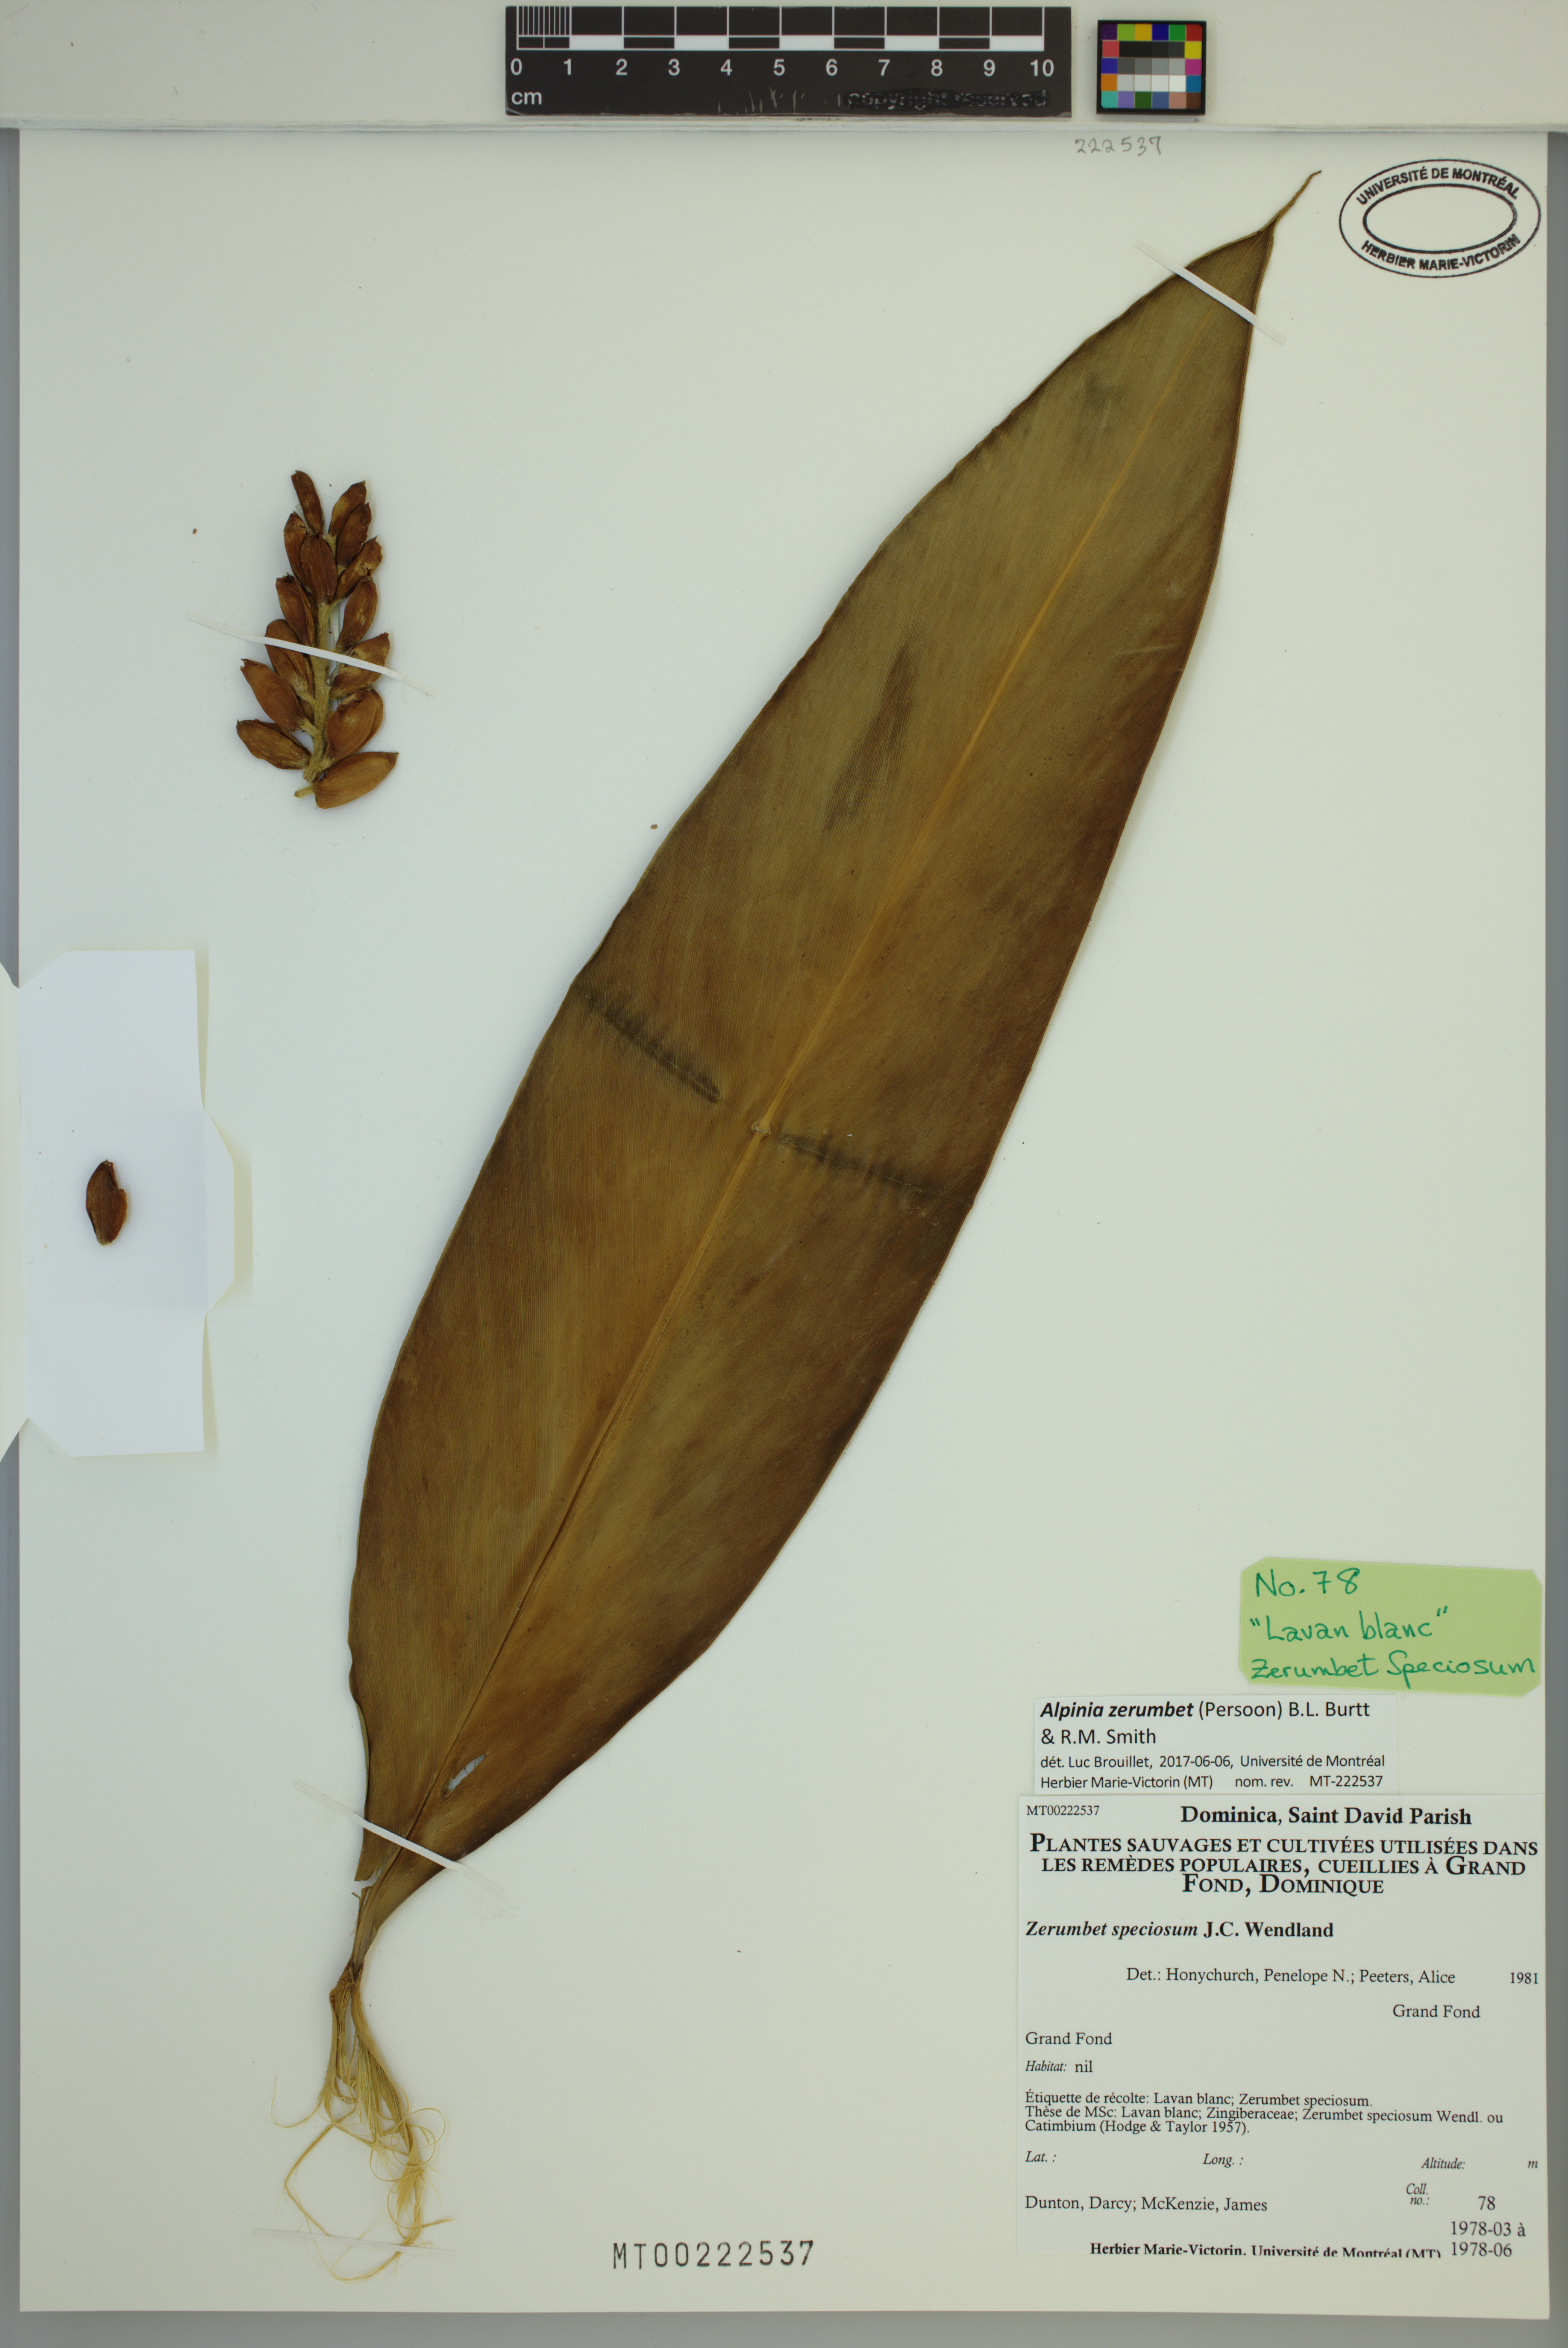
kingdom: Plantae
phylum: Tracheophyta
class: Liliopsida
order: Zingiberales
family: Zingiberaceae
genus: Alpinia
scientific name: Alpinia zerumbet
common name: Shellplant
